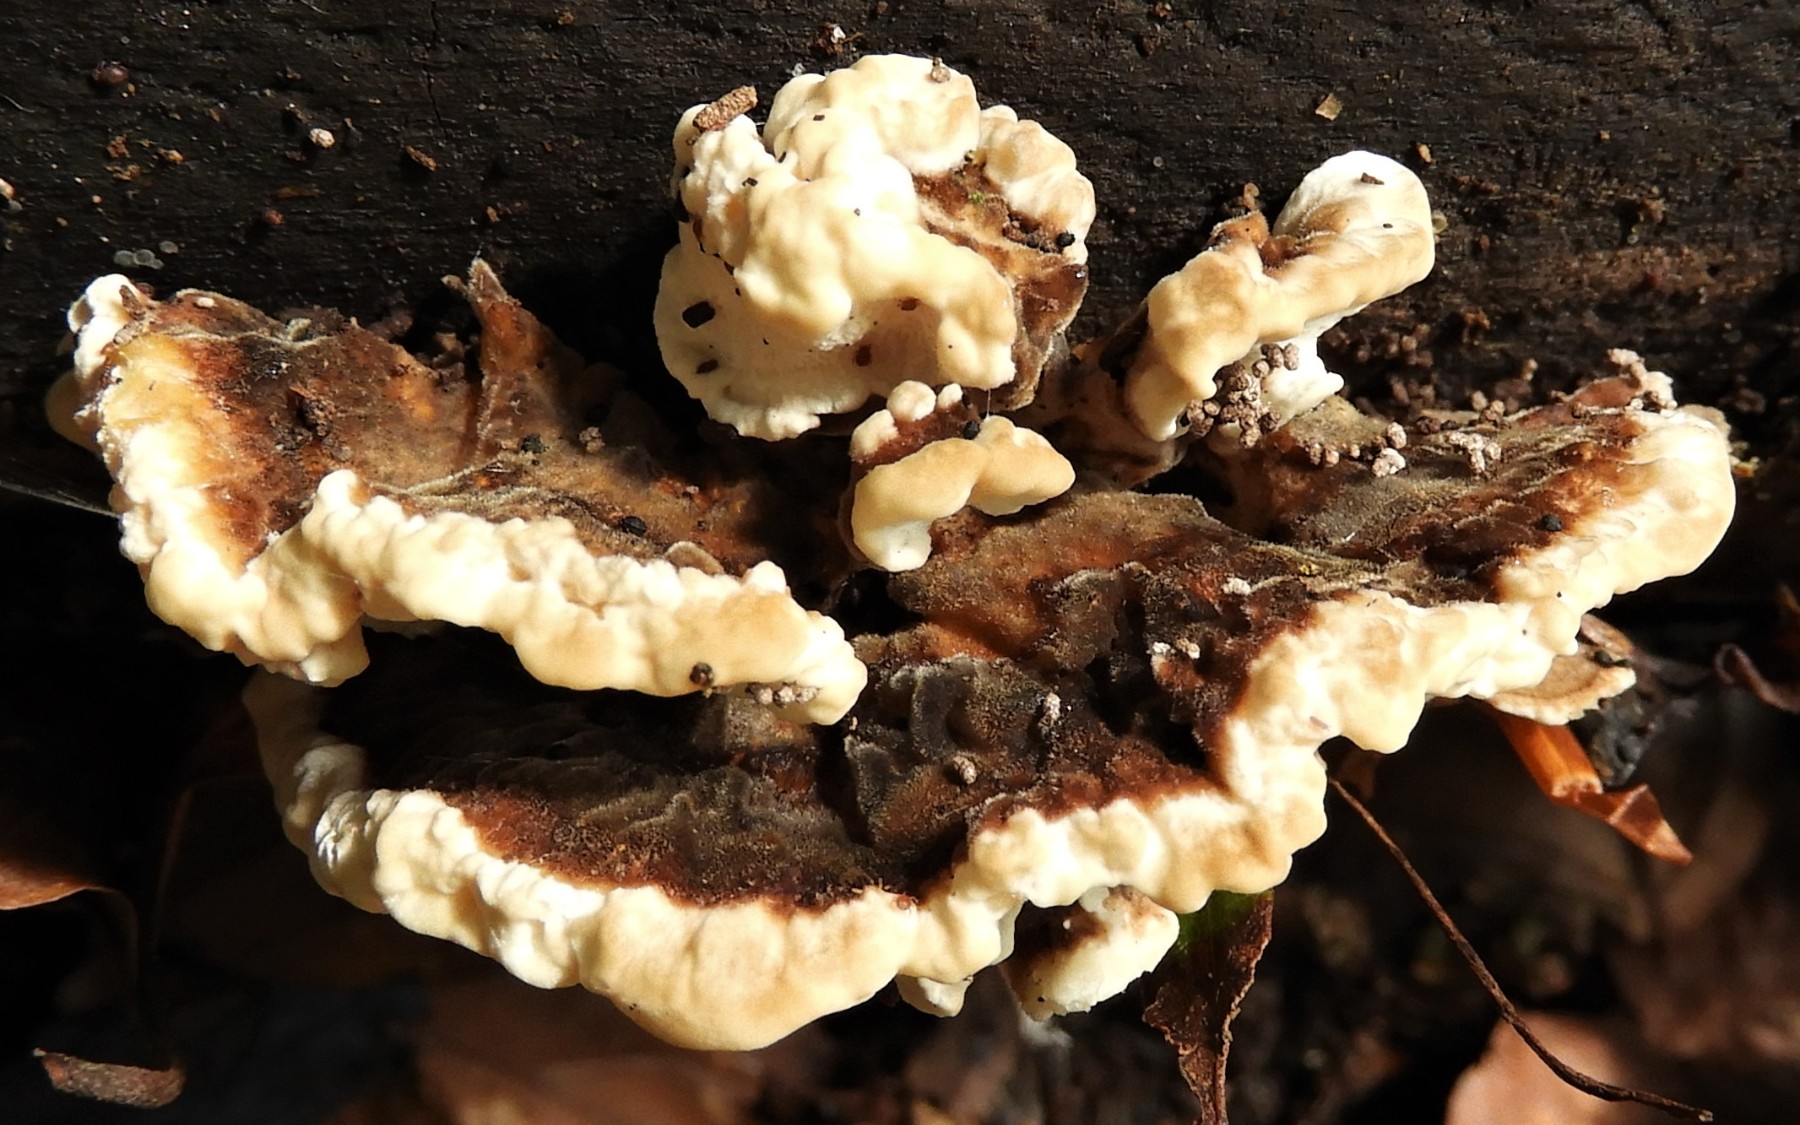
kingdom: Fungi
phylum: Basidiomycota
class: Agaricomycetes
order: Polyporales
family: Ischnodermataceae
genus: Ischnoderma
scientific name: Ischnoderma resinosum
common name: løv-tjæreporesvamp
